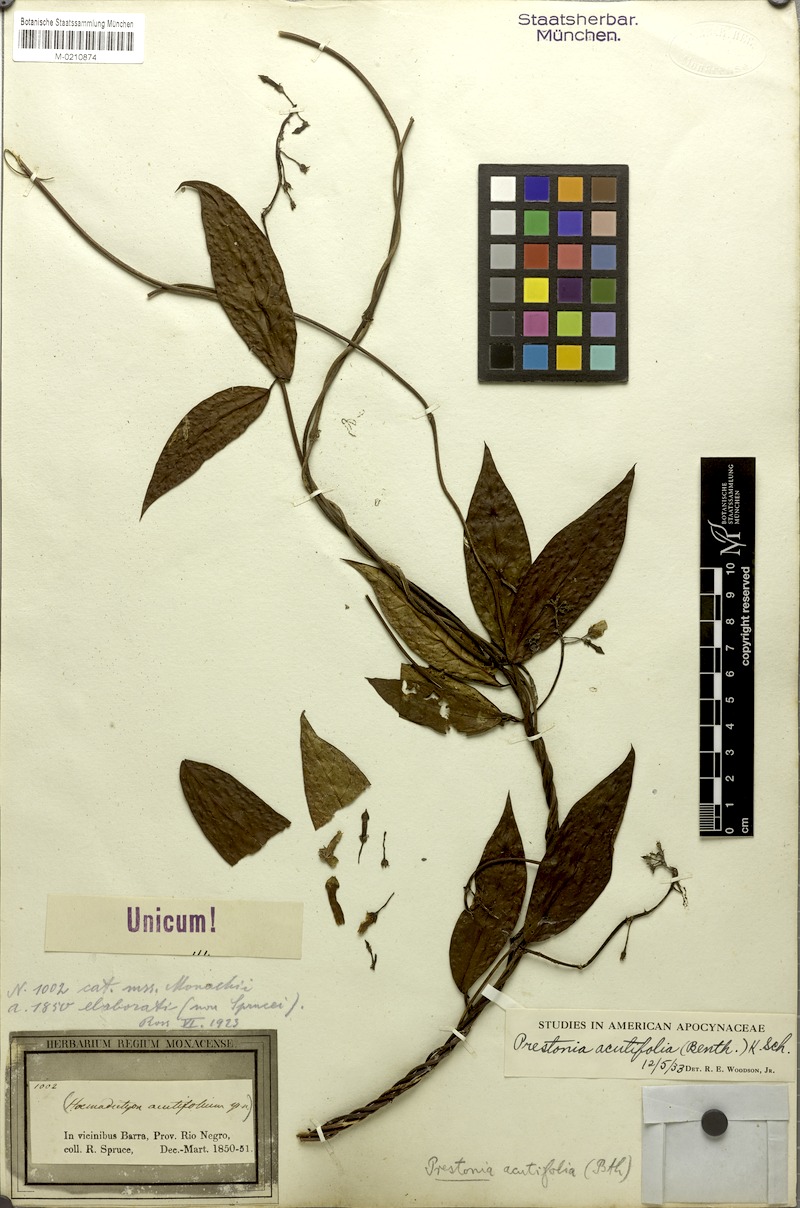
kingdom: Plantae
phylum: Tracheophyta
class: Magnoliopsida
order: Gentianales
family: Apocynaceae
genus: Prestonia
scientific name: Prestonia quinquangularis
